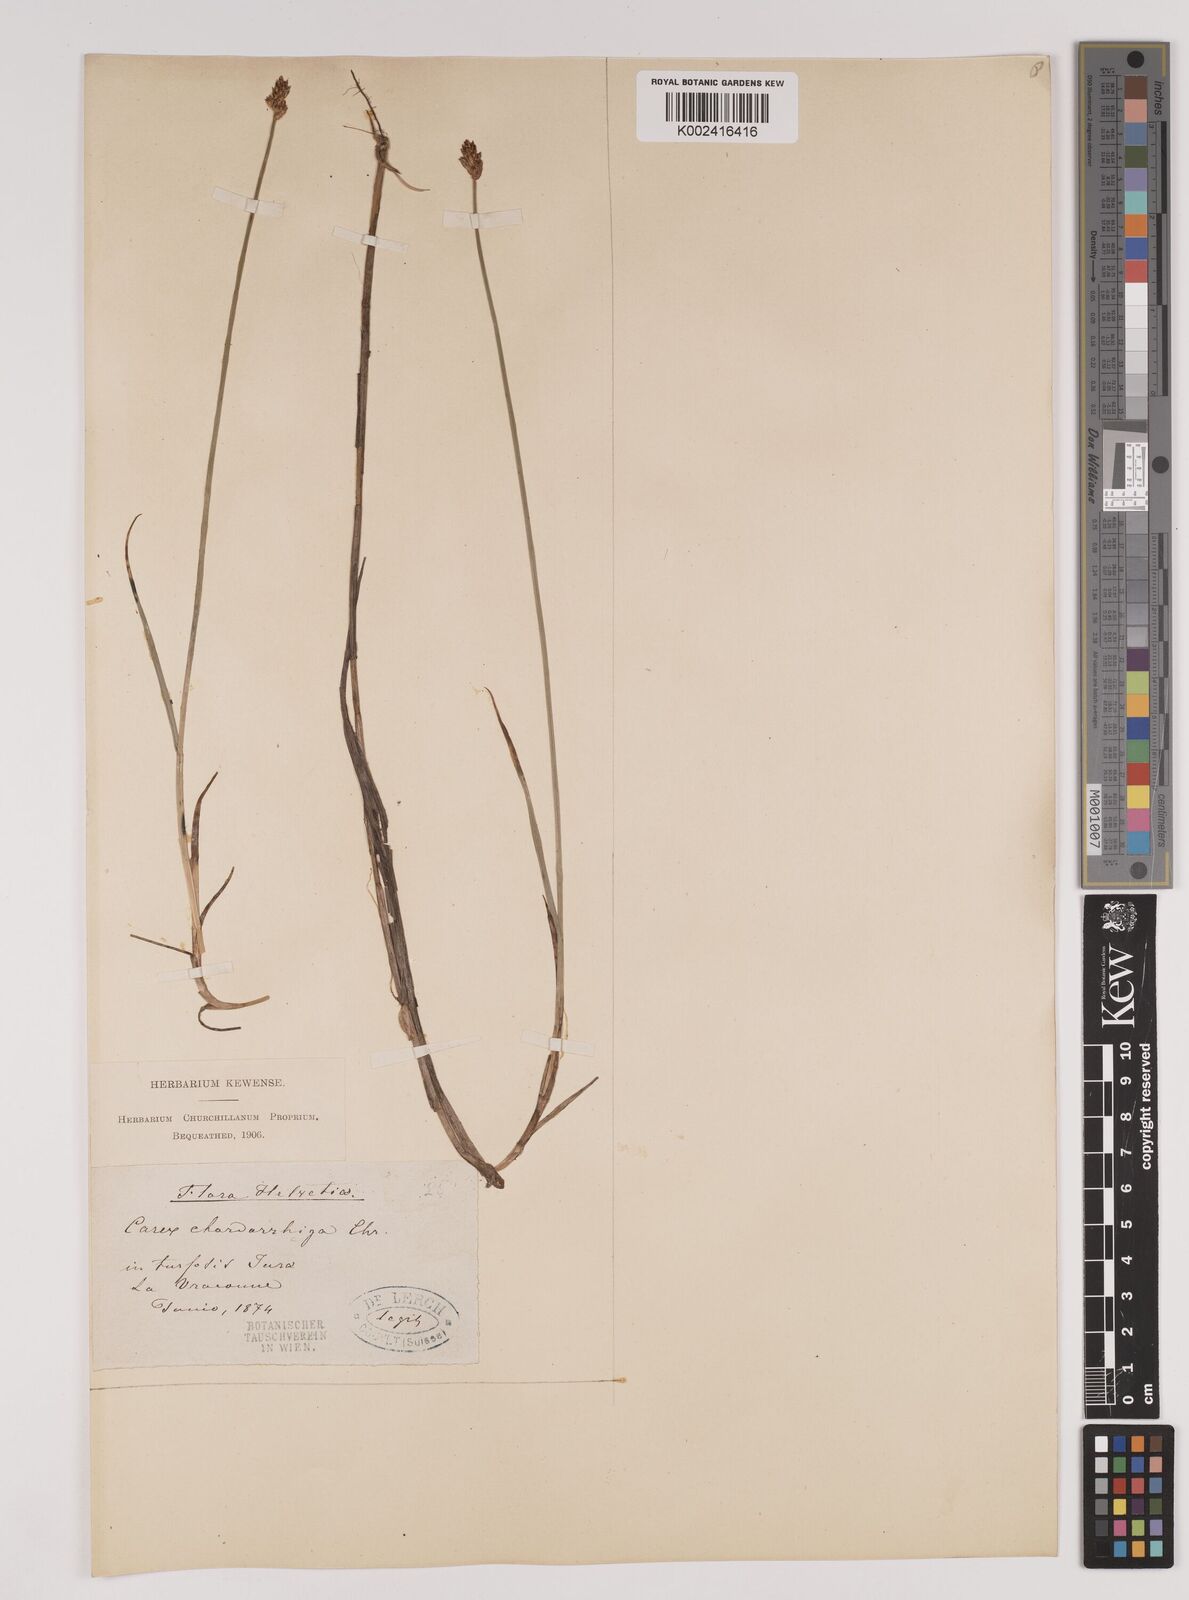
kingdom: Plantae
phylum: Tracheophyta
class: Liliopsida
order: Poales
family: Cyperaceae
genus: Carex
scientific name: Carex chordorrhiza
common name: String sedge
